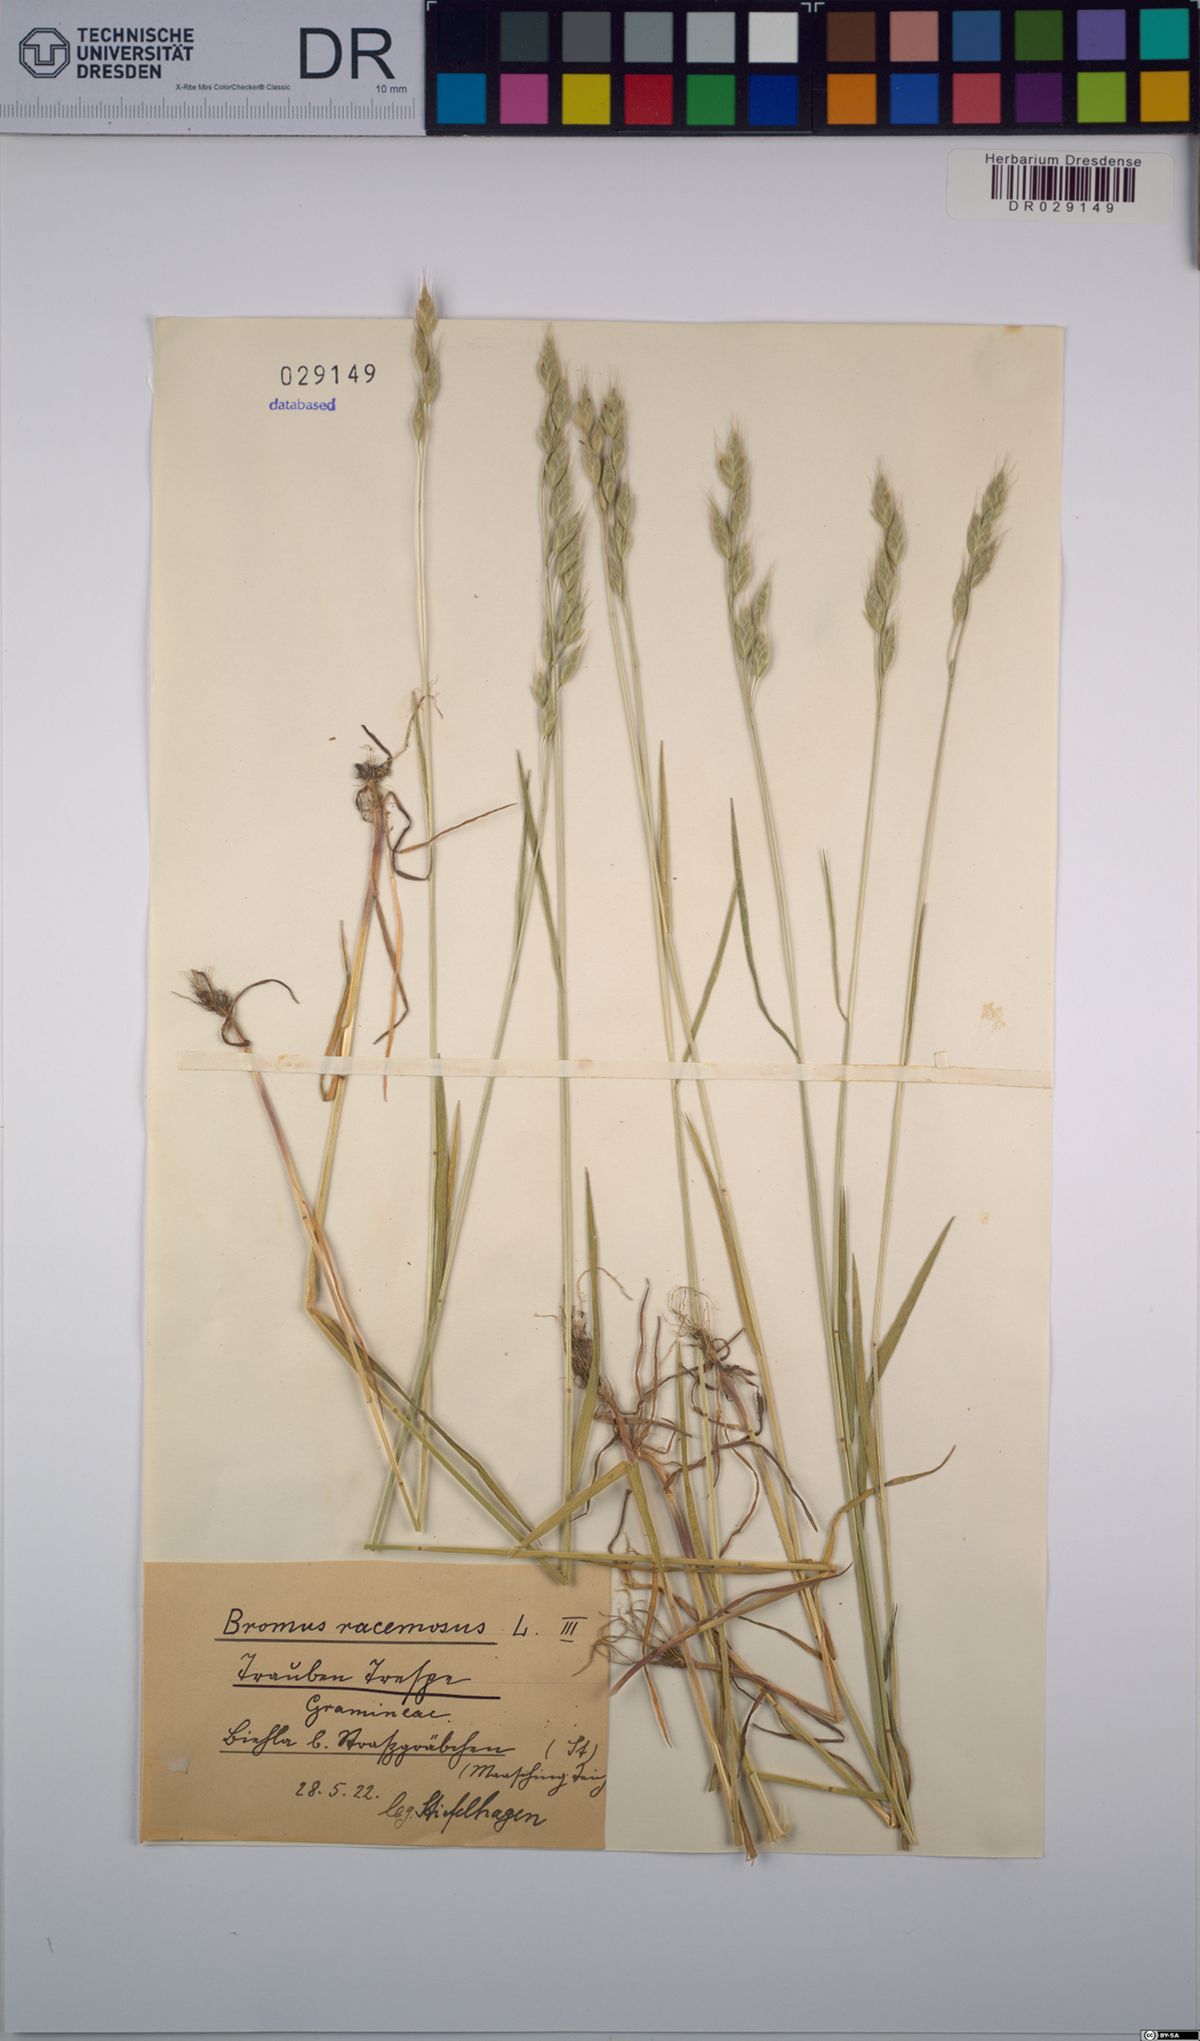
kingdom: Plantae
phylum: Tracheophyta
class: Liliopsida
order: Poales
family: Poaceae
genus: Bromus
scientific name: Bromus racemosus
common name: Bald brome
